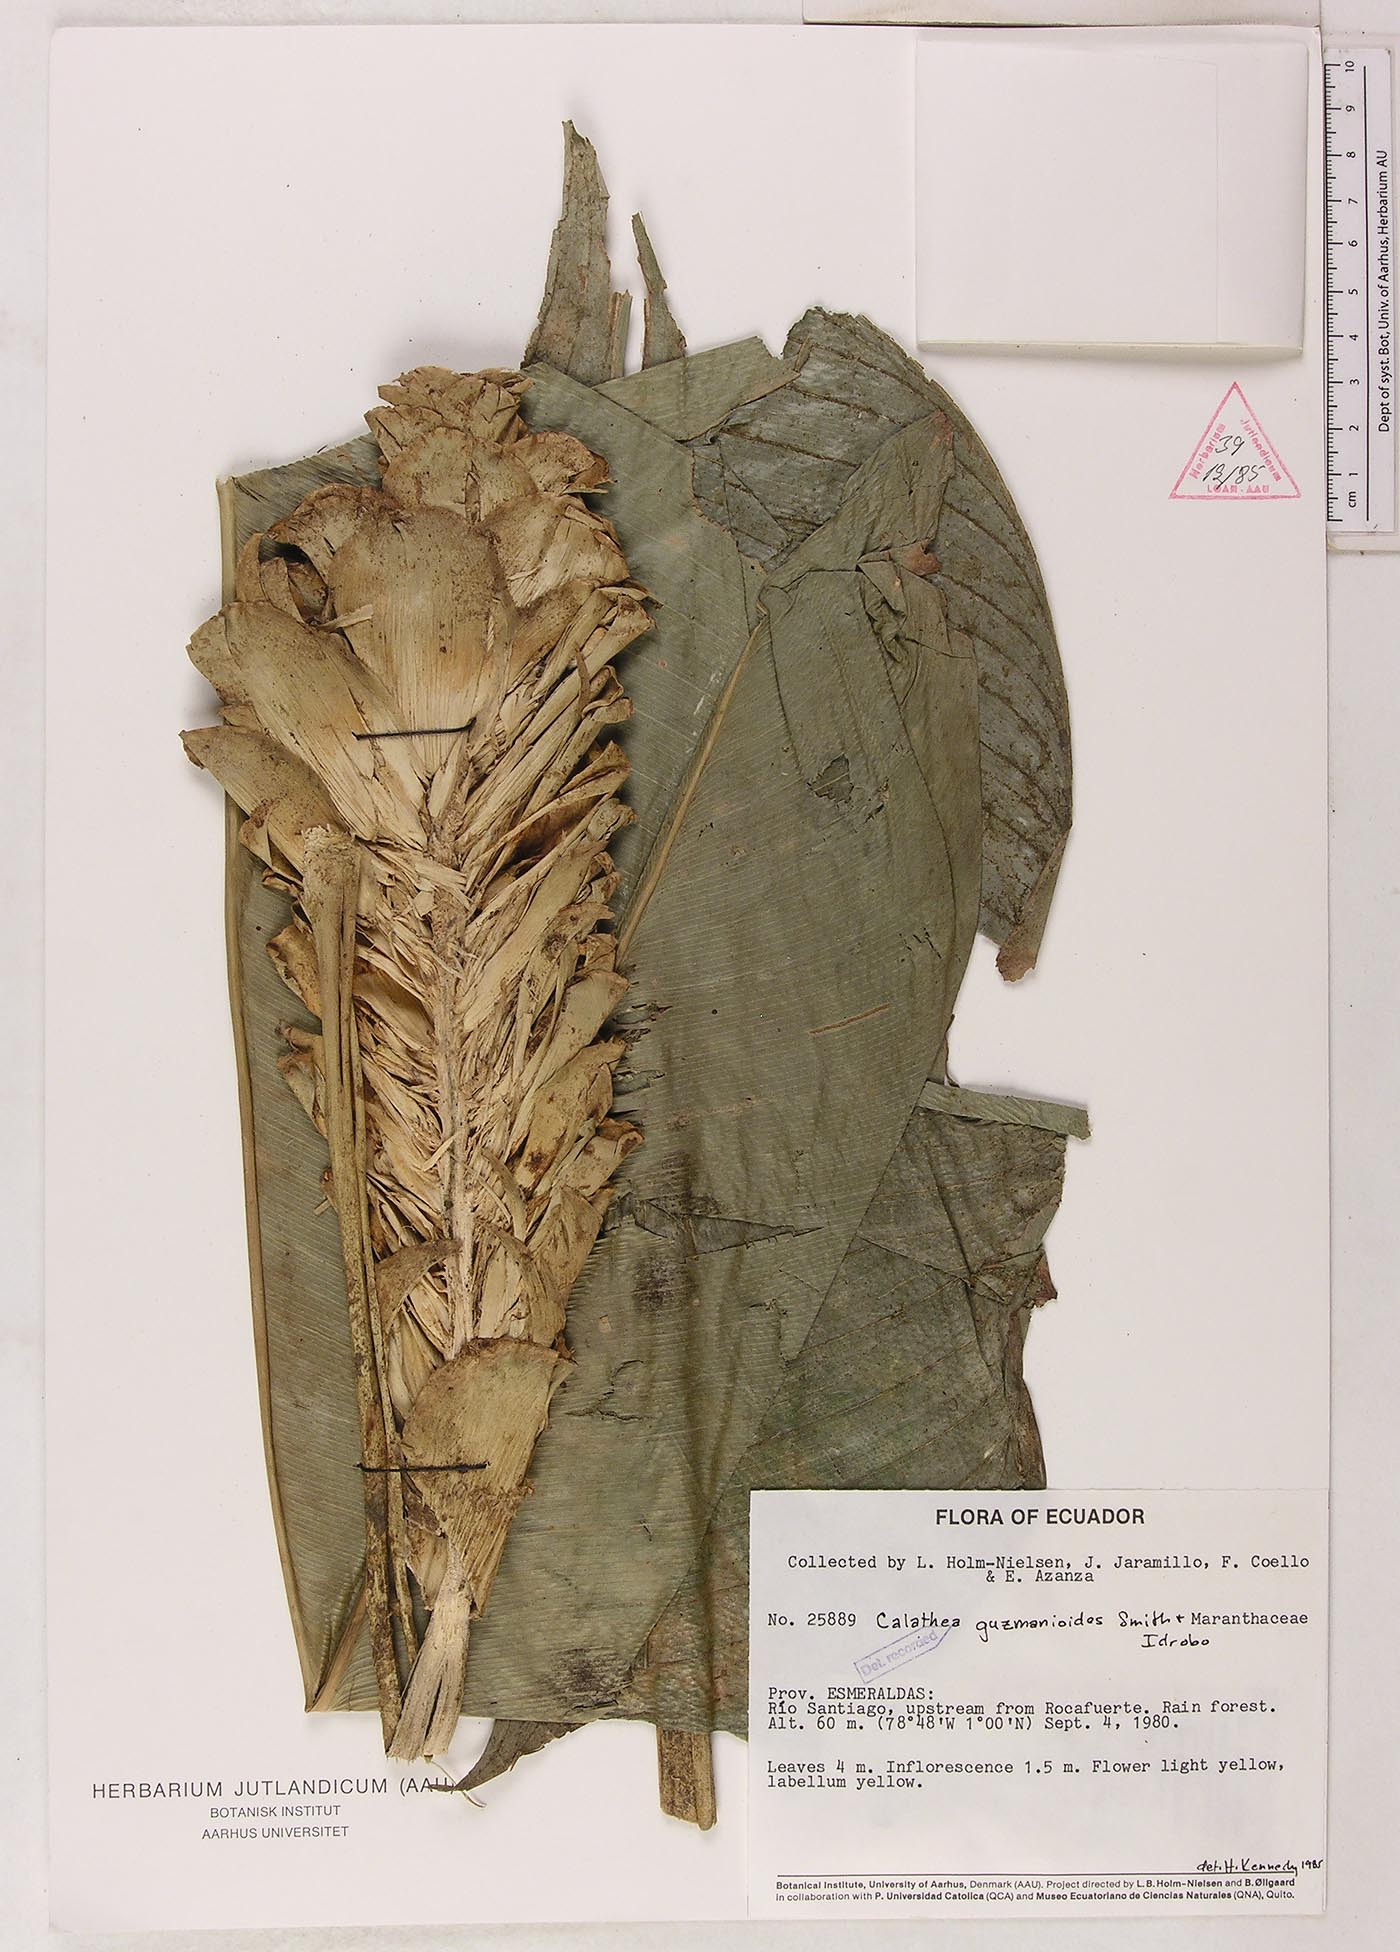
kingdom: Plantae
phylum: Tracheophyta
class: Liliopsida
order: Zingiberales
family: Marantaceae
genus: Calathea
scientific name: Calathea guzmanioides
